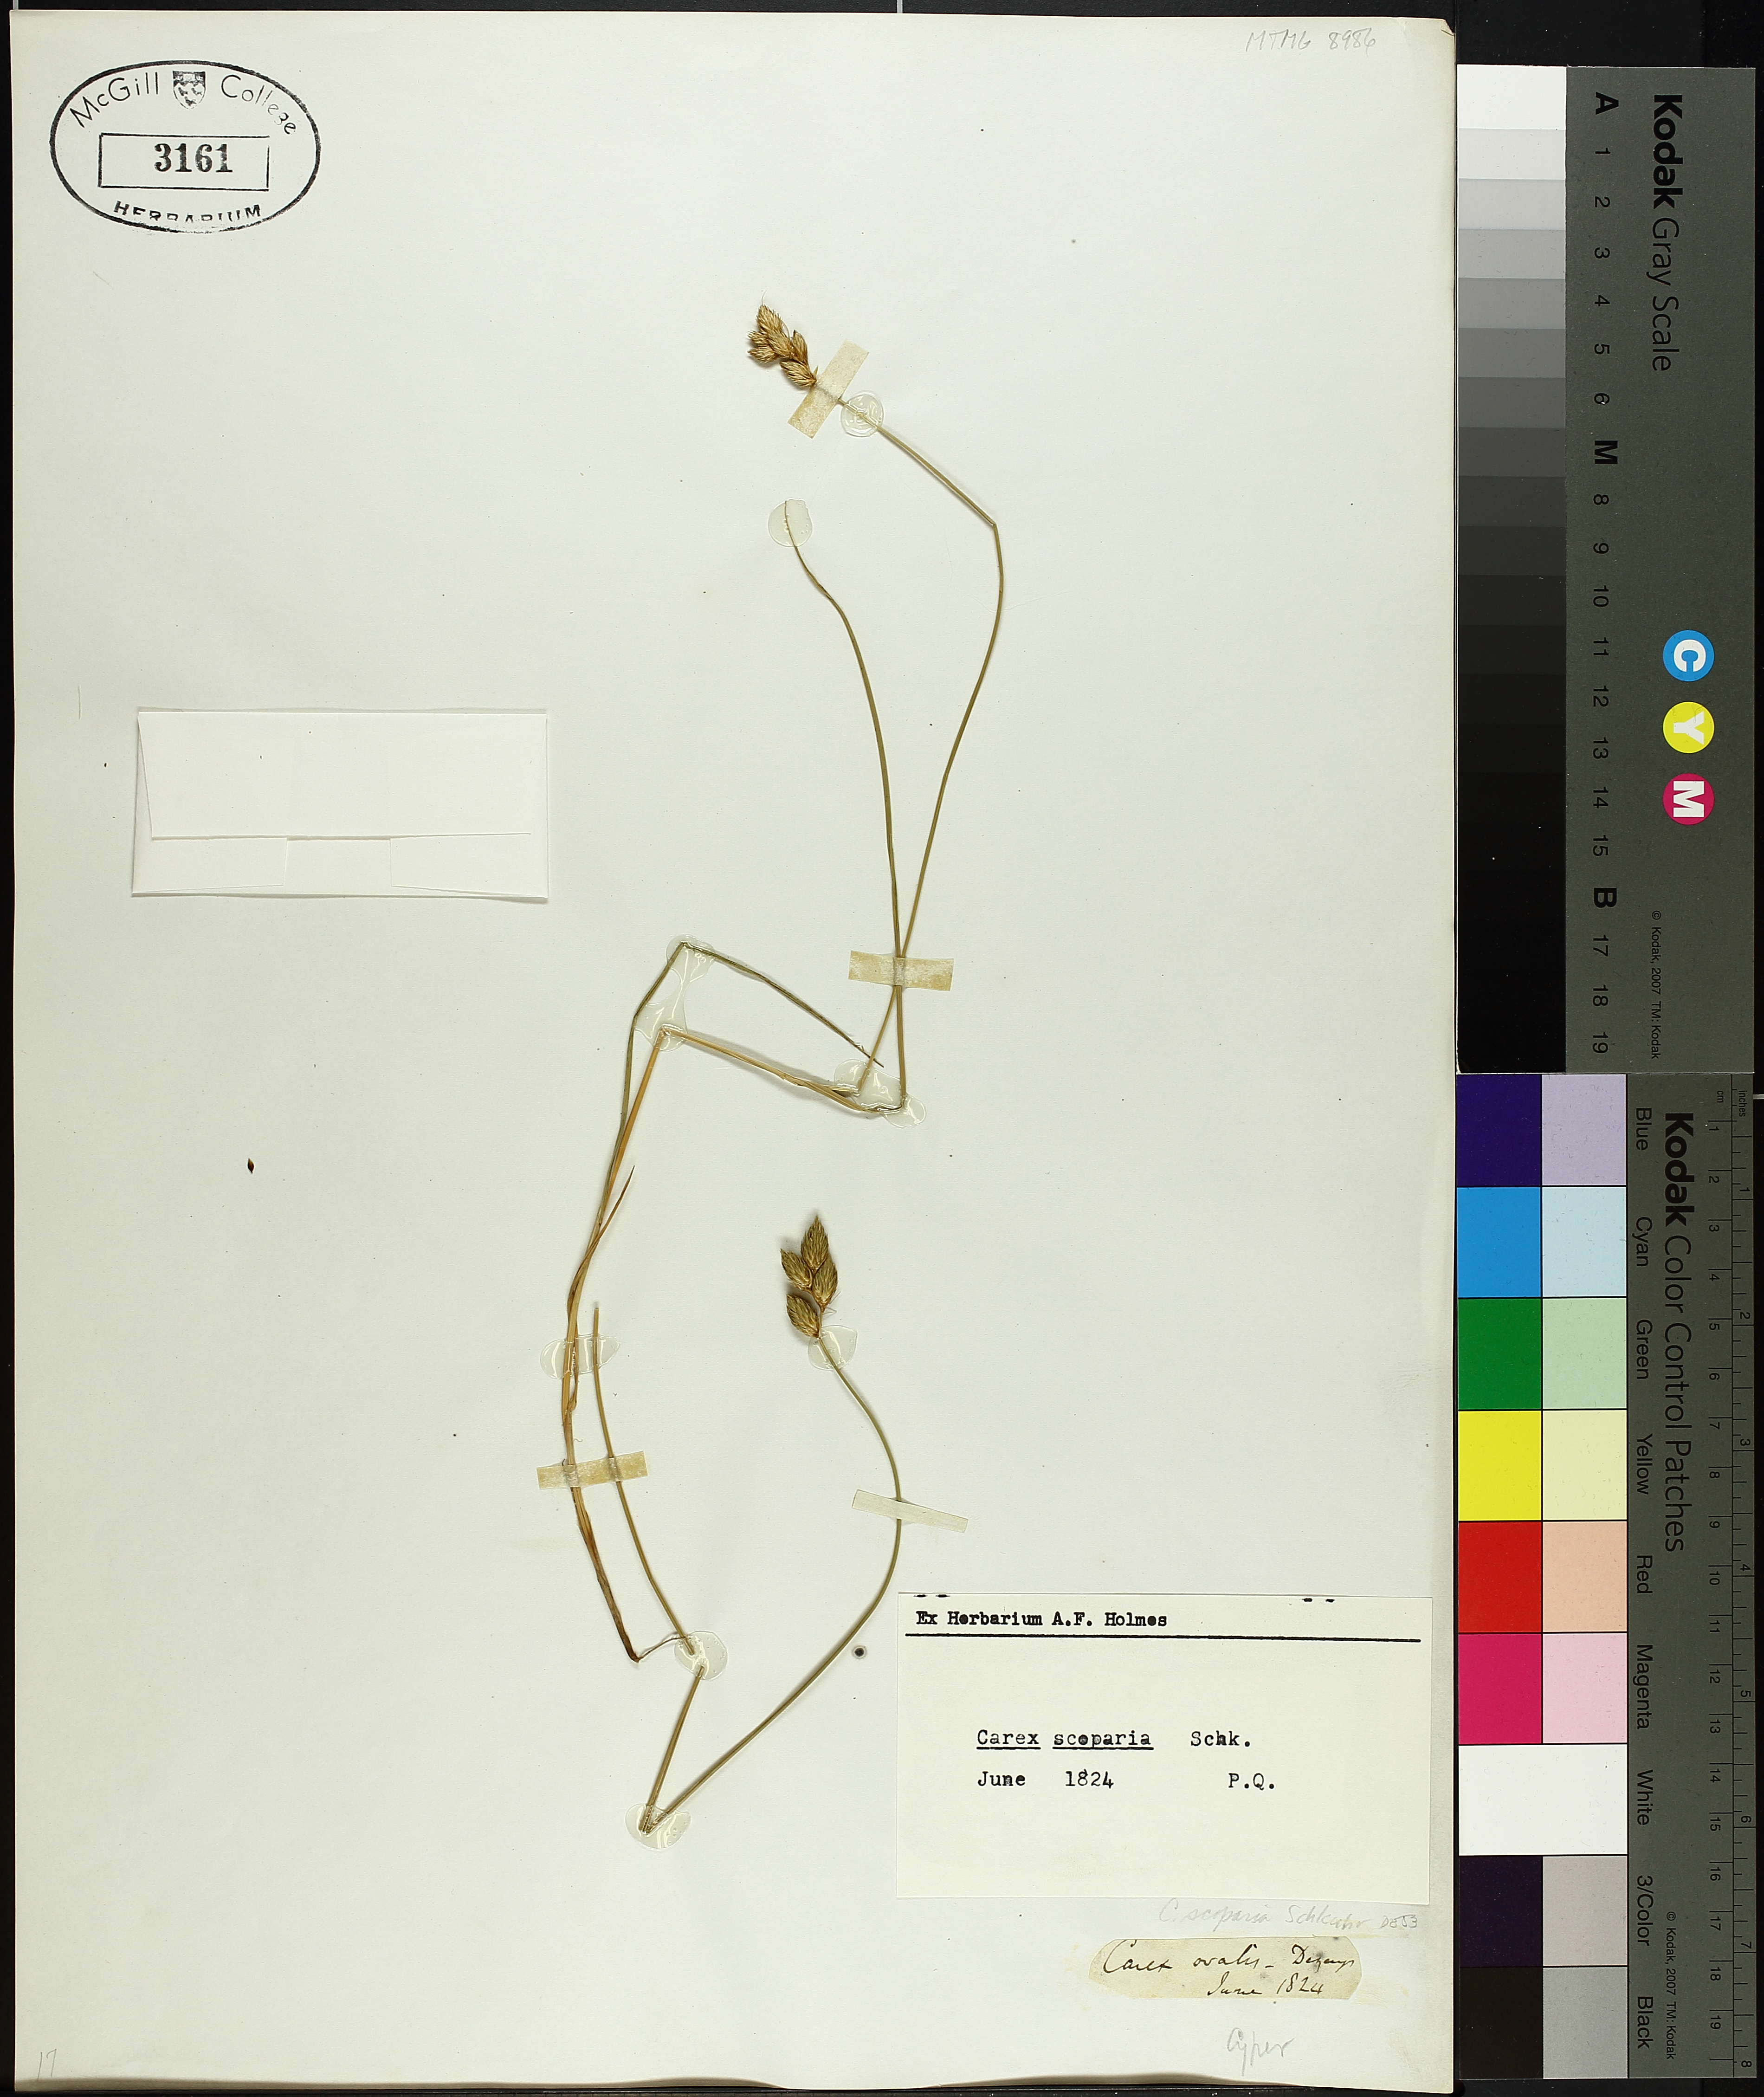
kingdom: Plantae
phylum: Tracheophyta
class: Liliopsida
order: Poales
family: Cyperaceae
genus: Carex
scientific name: Carex scoparia
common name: Broom sedge
